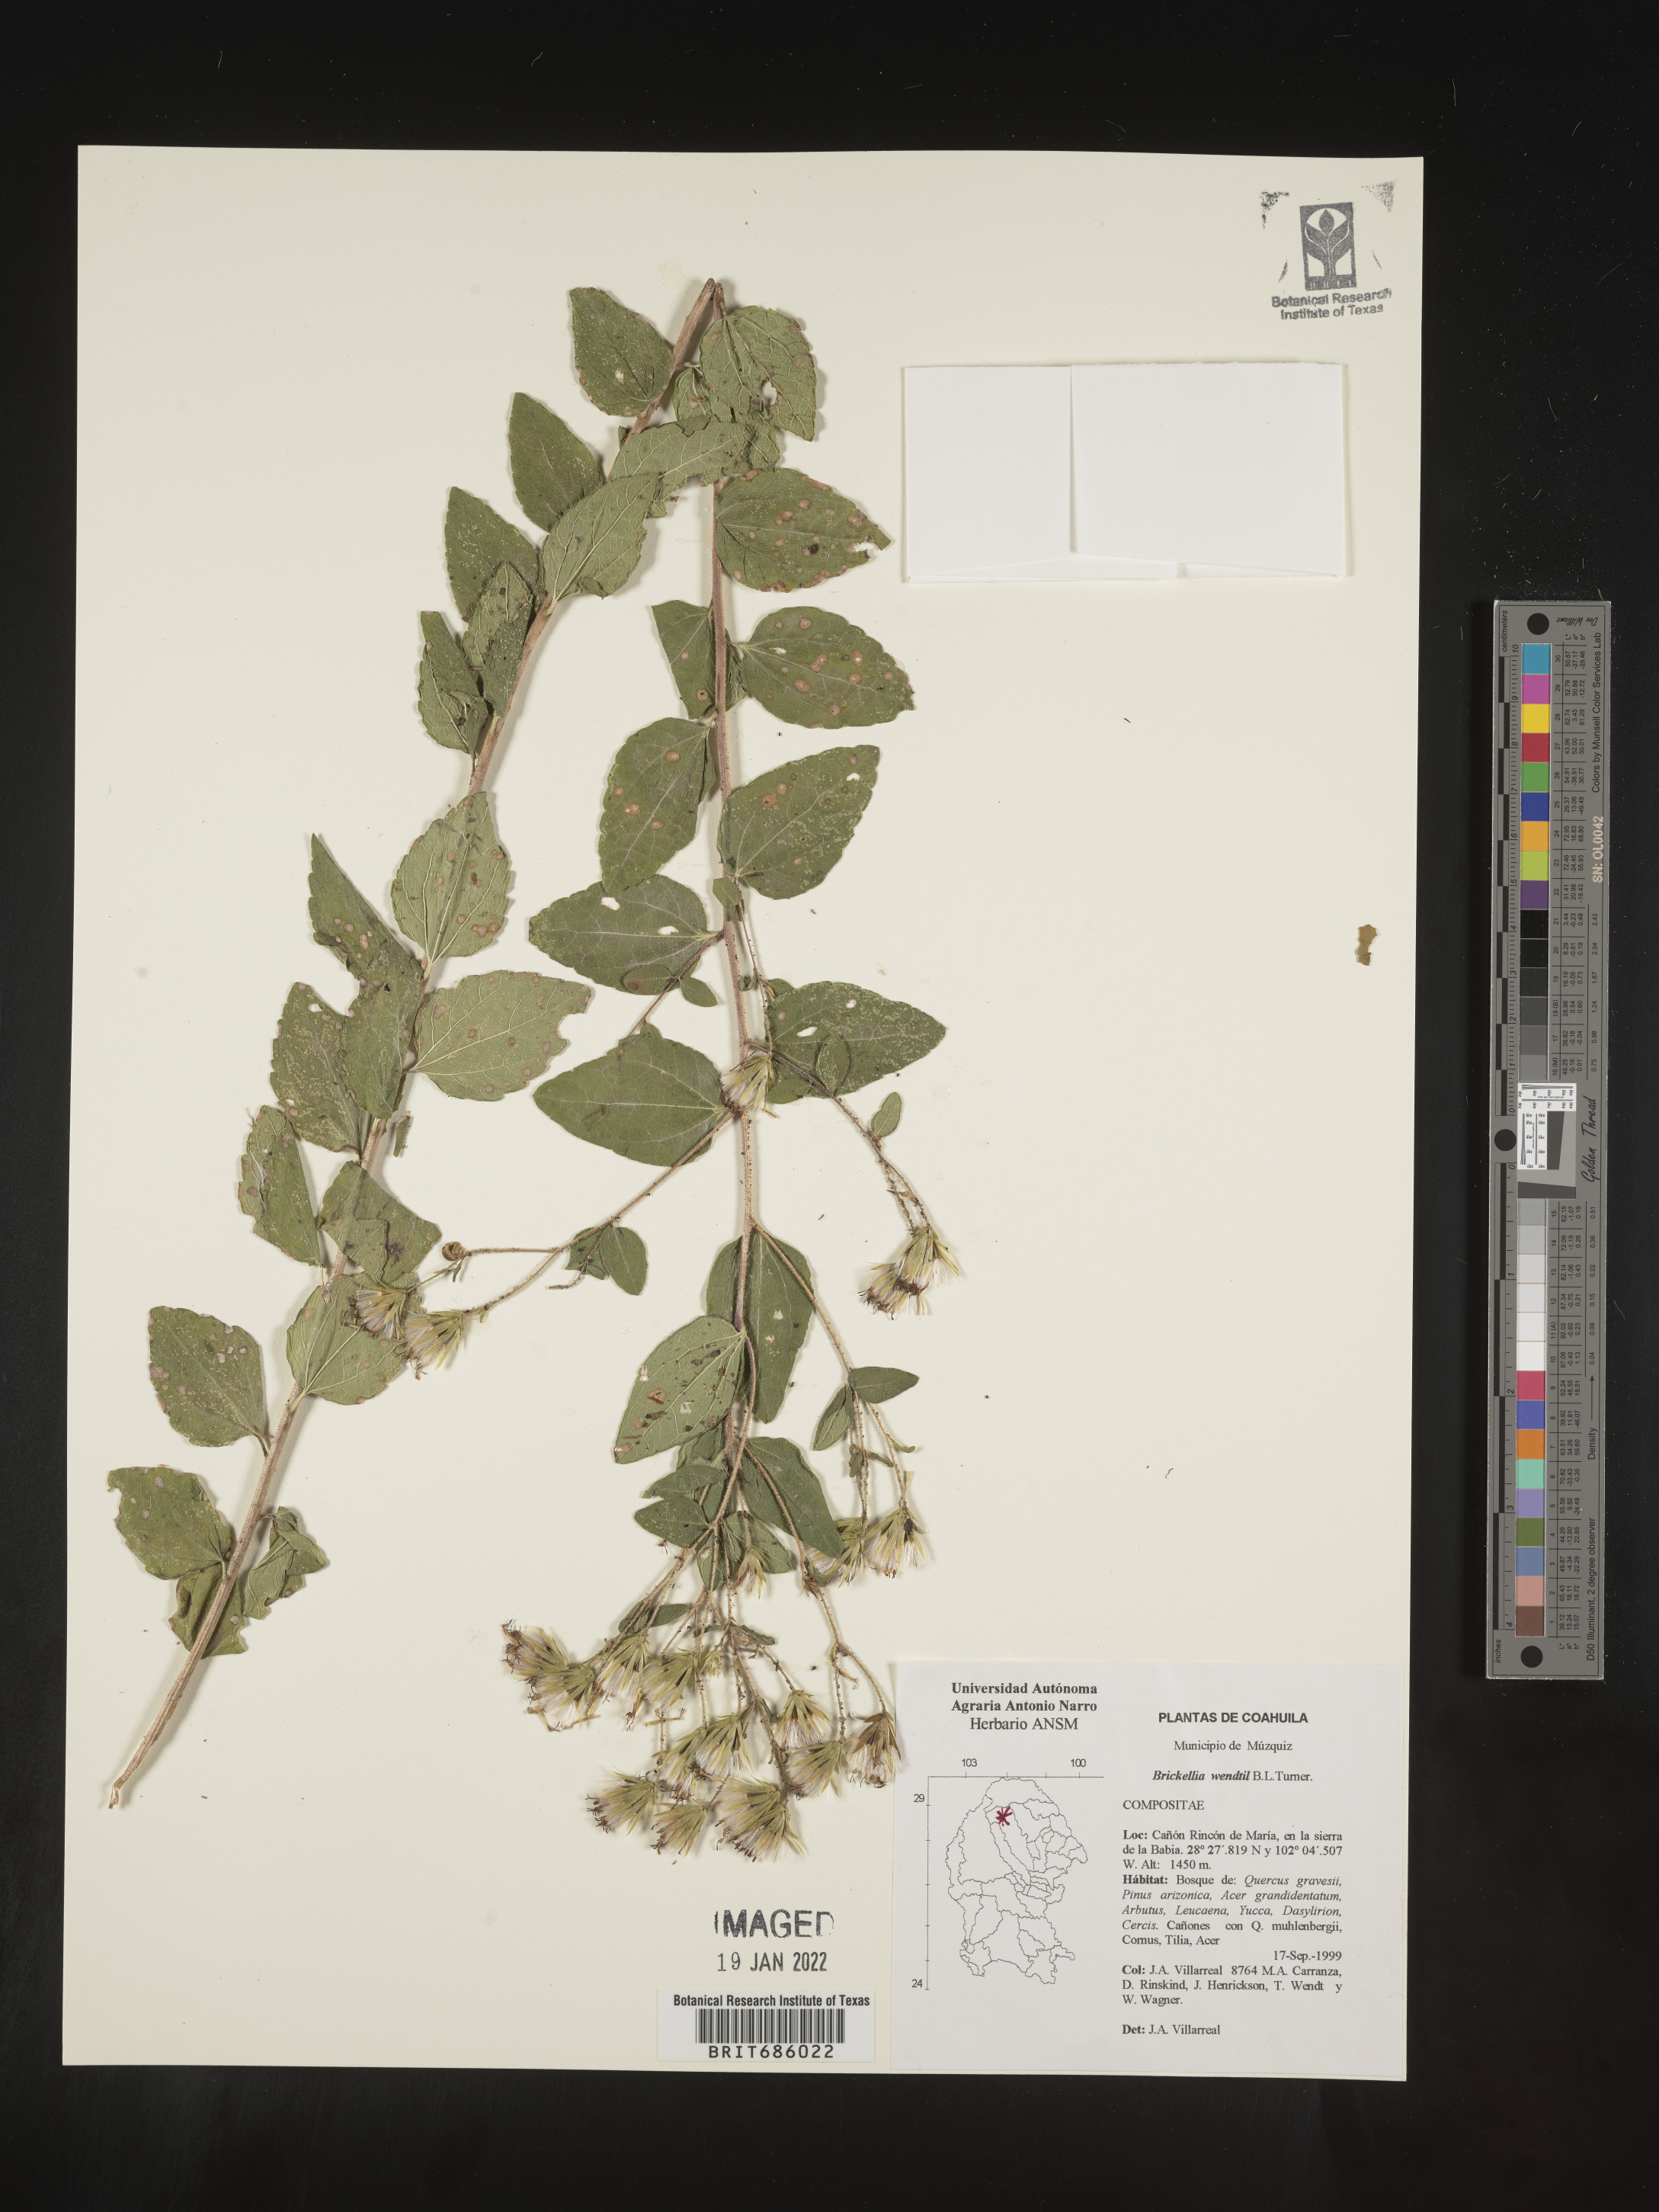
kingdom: Plantae
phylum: Tracheophyta
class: Magnoliopsida
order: Asterales
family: Asteraceae
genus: Brickellia
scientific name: Brickellia
